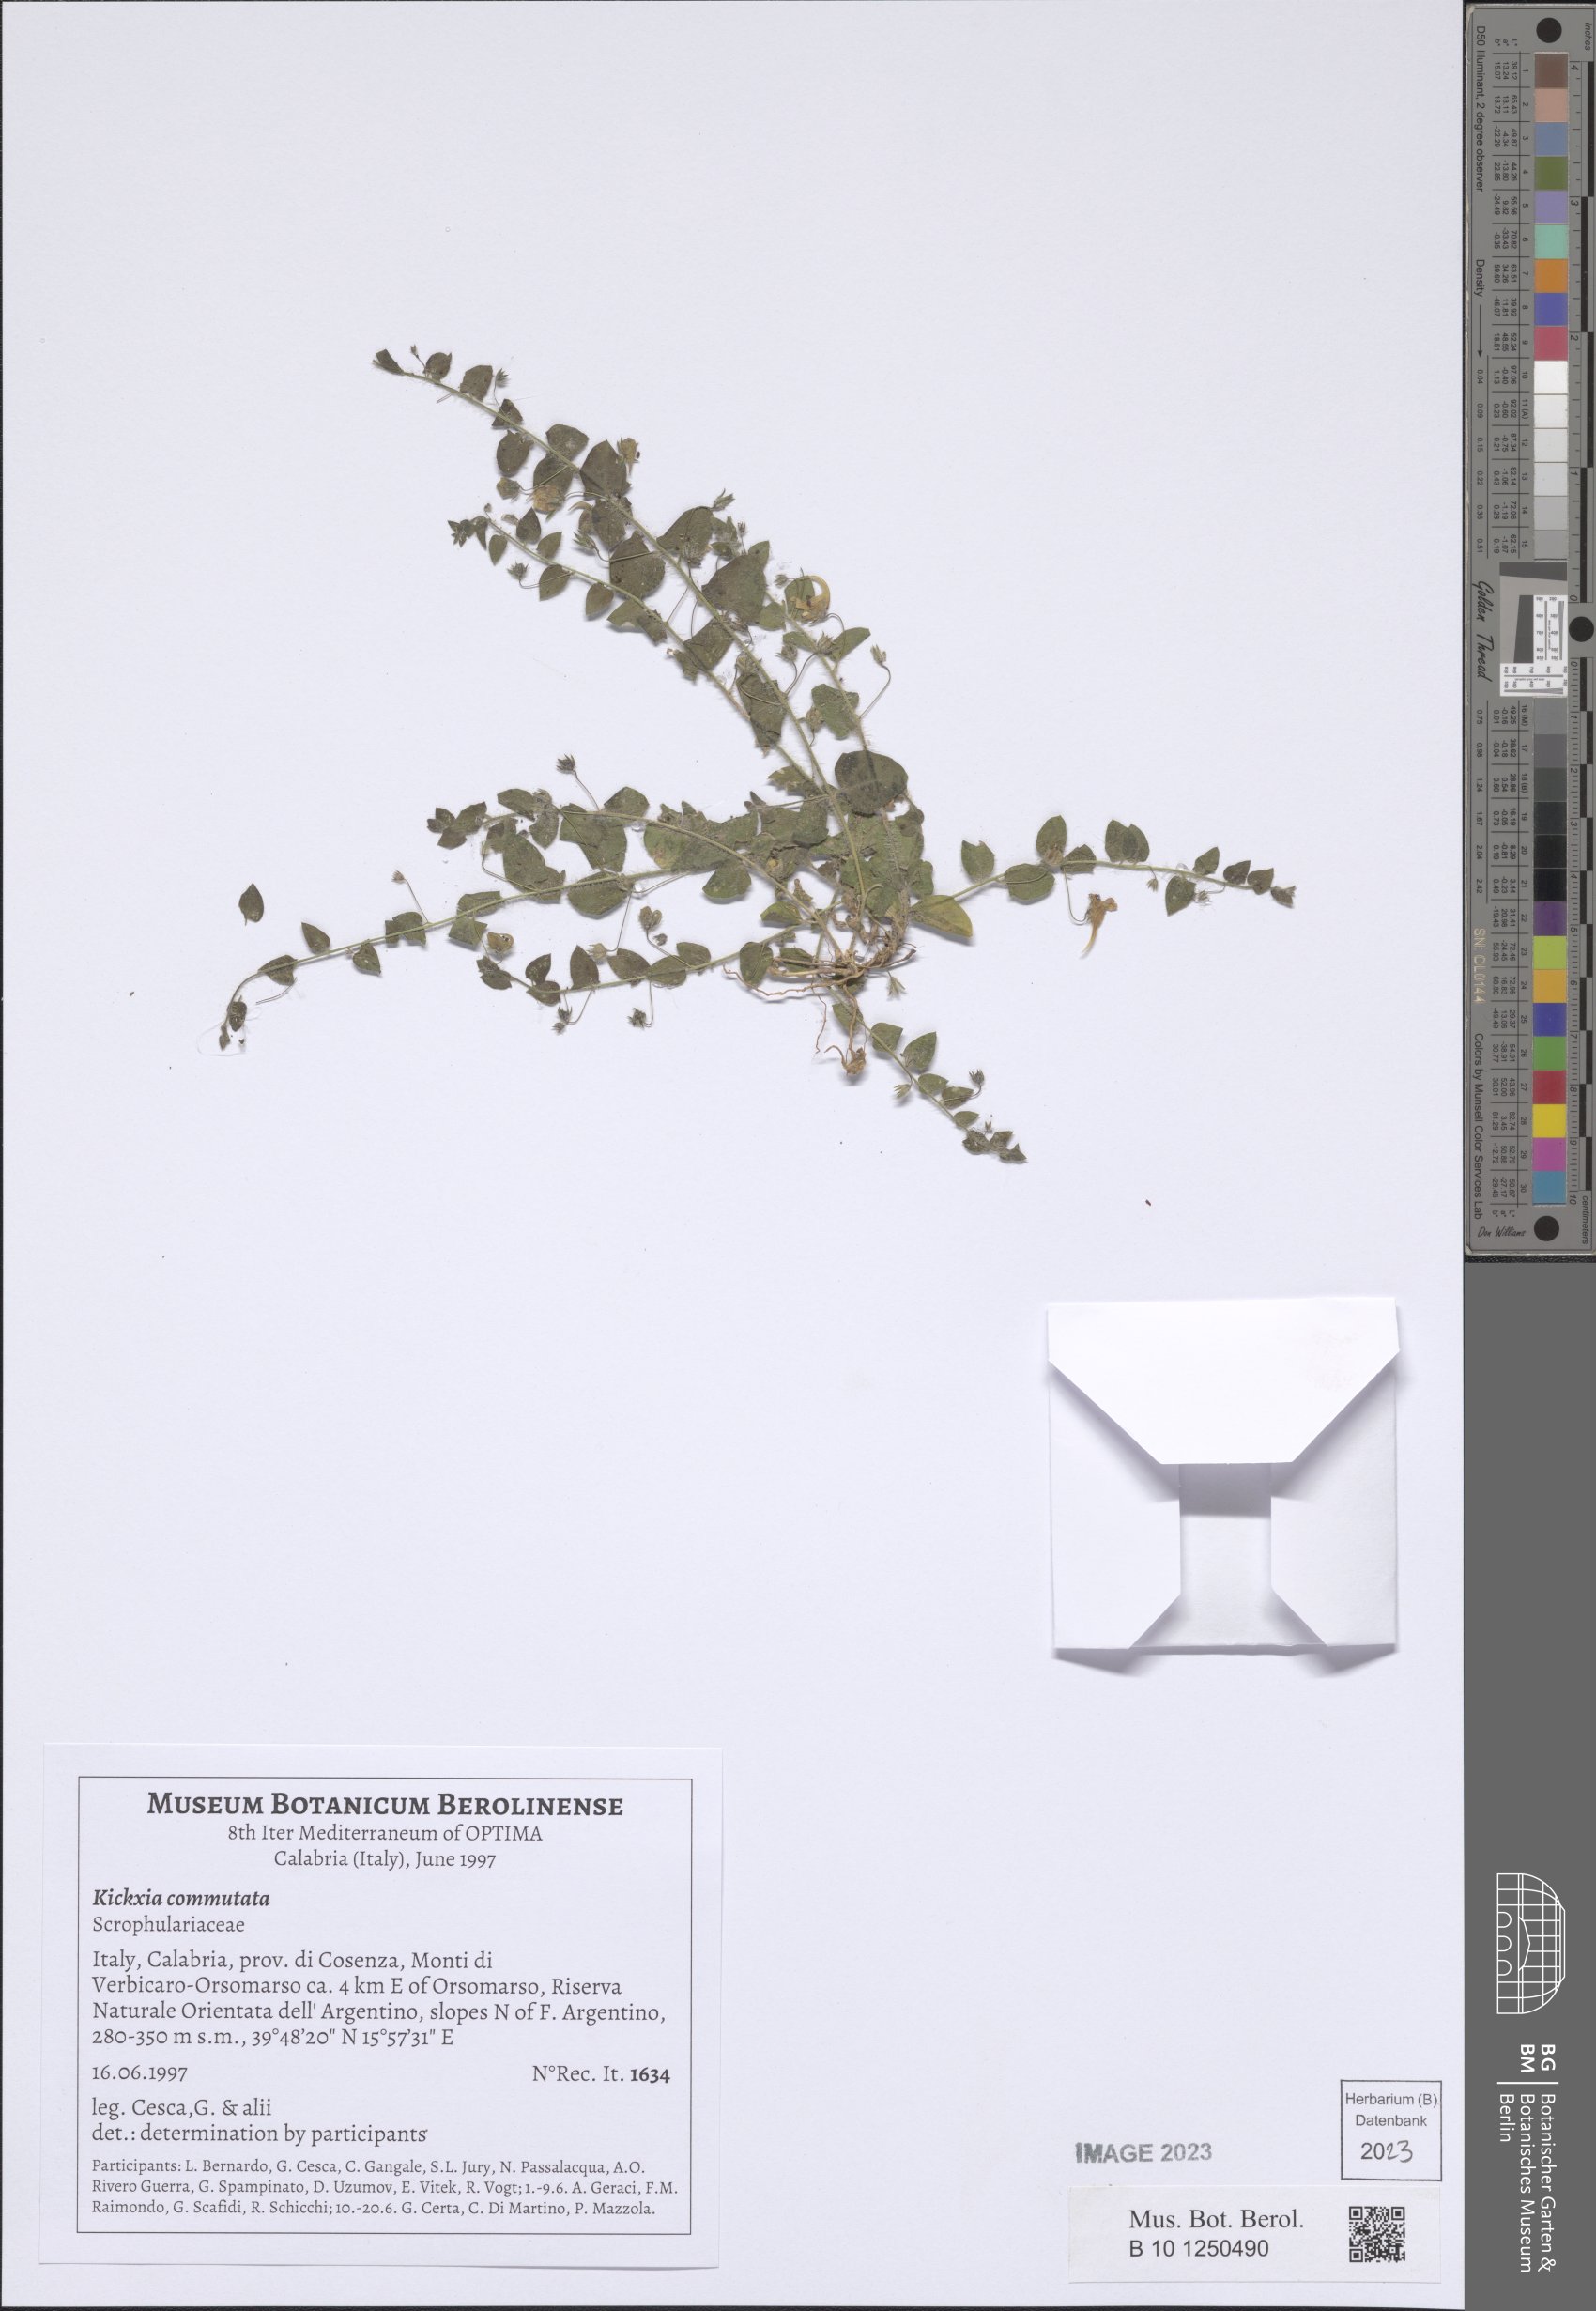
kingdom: Plantae
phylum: Tracheophyta
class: Magnoliopsida
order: Lamiales
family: Plantaginaceae
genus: Kickxia
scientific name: Kickxia commutata
